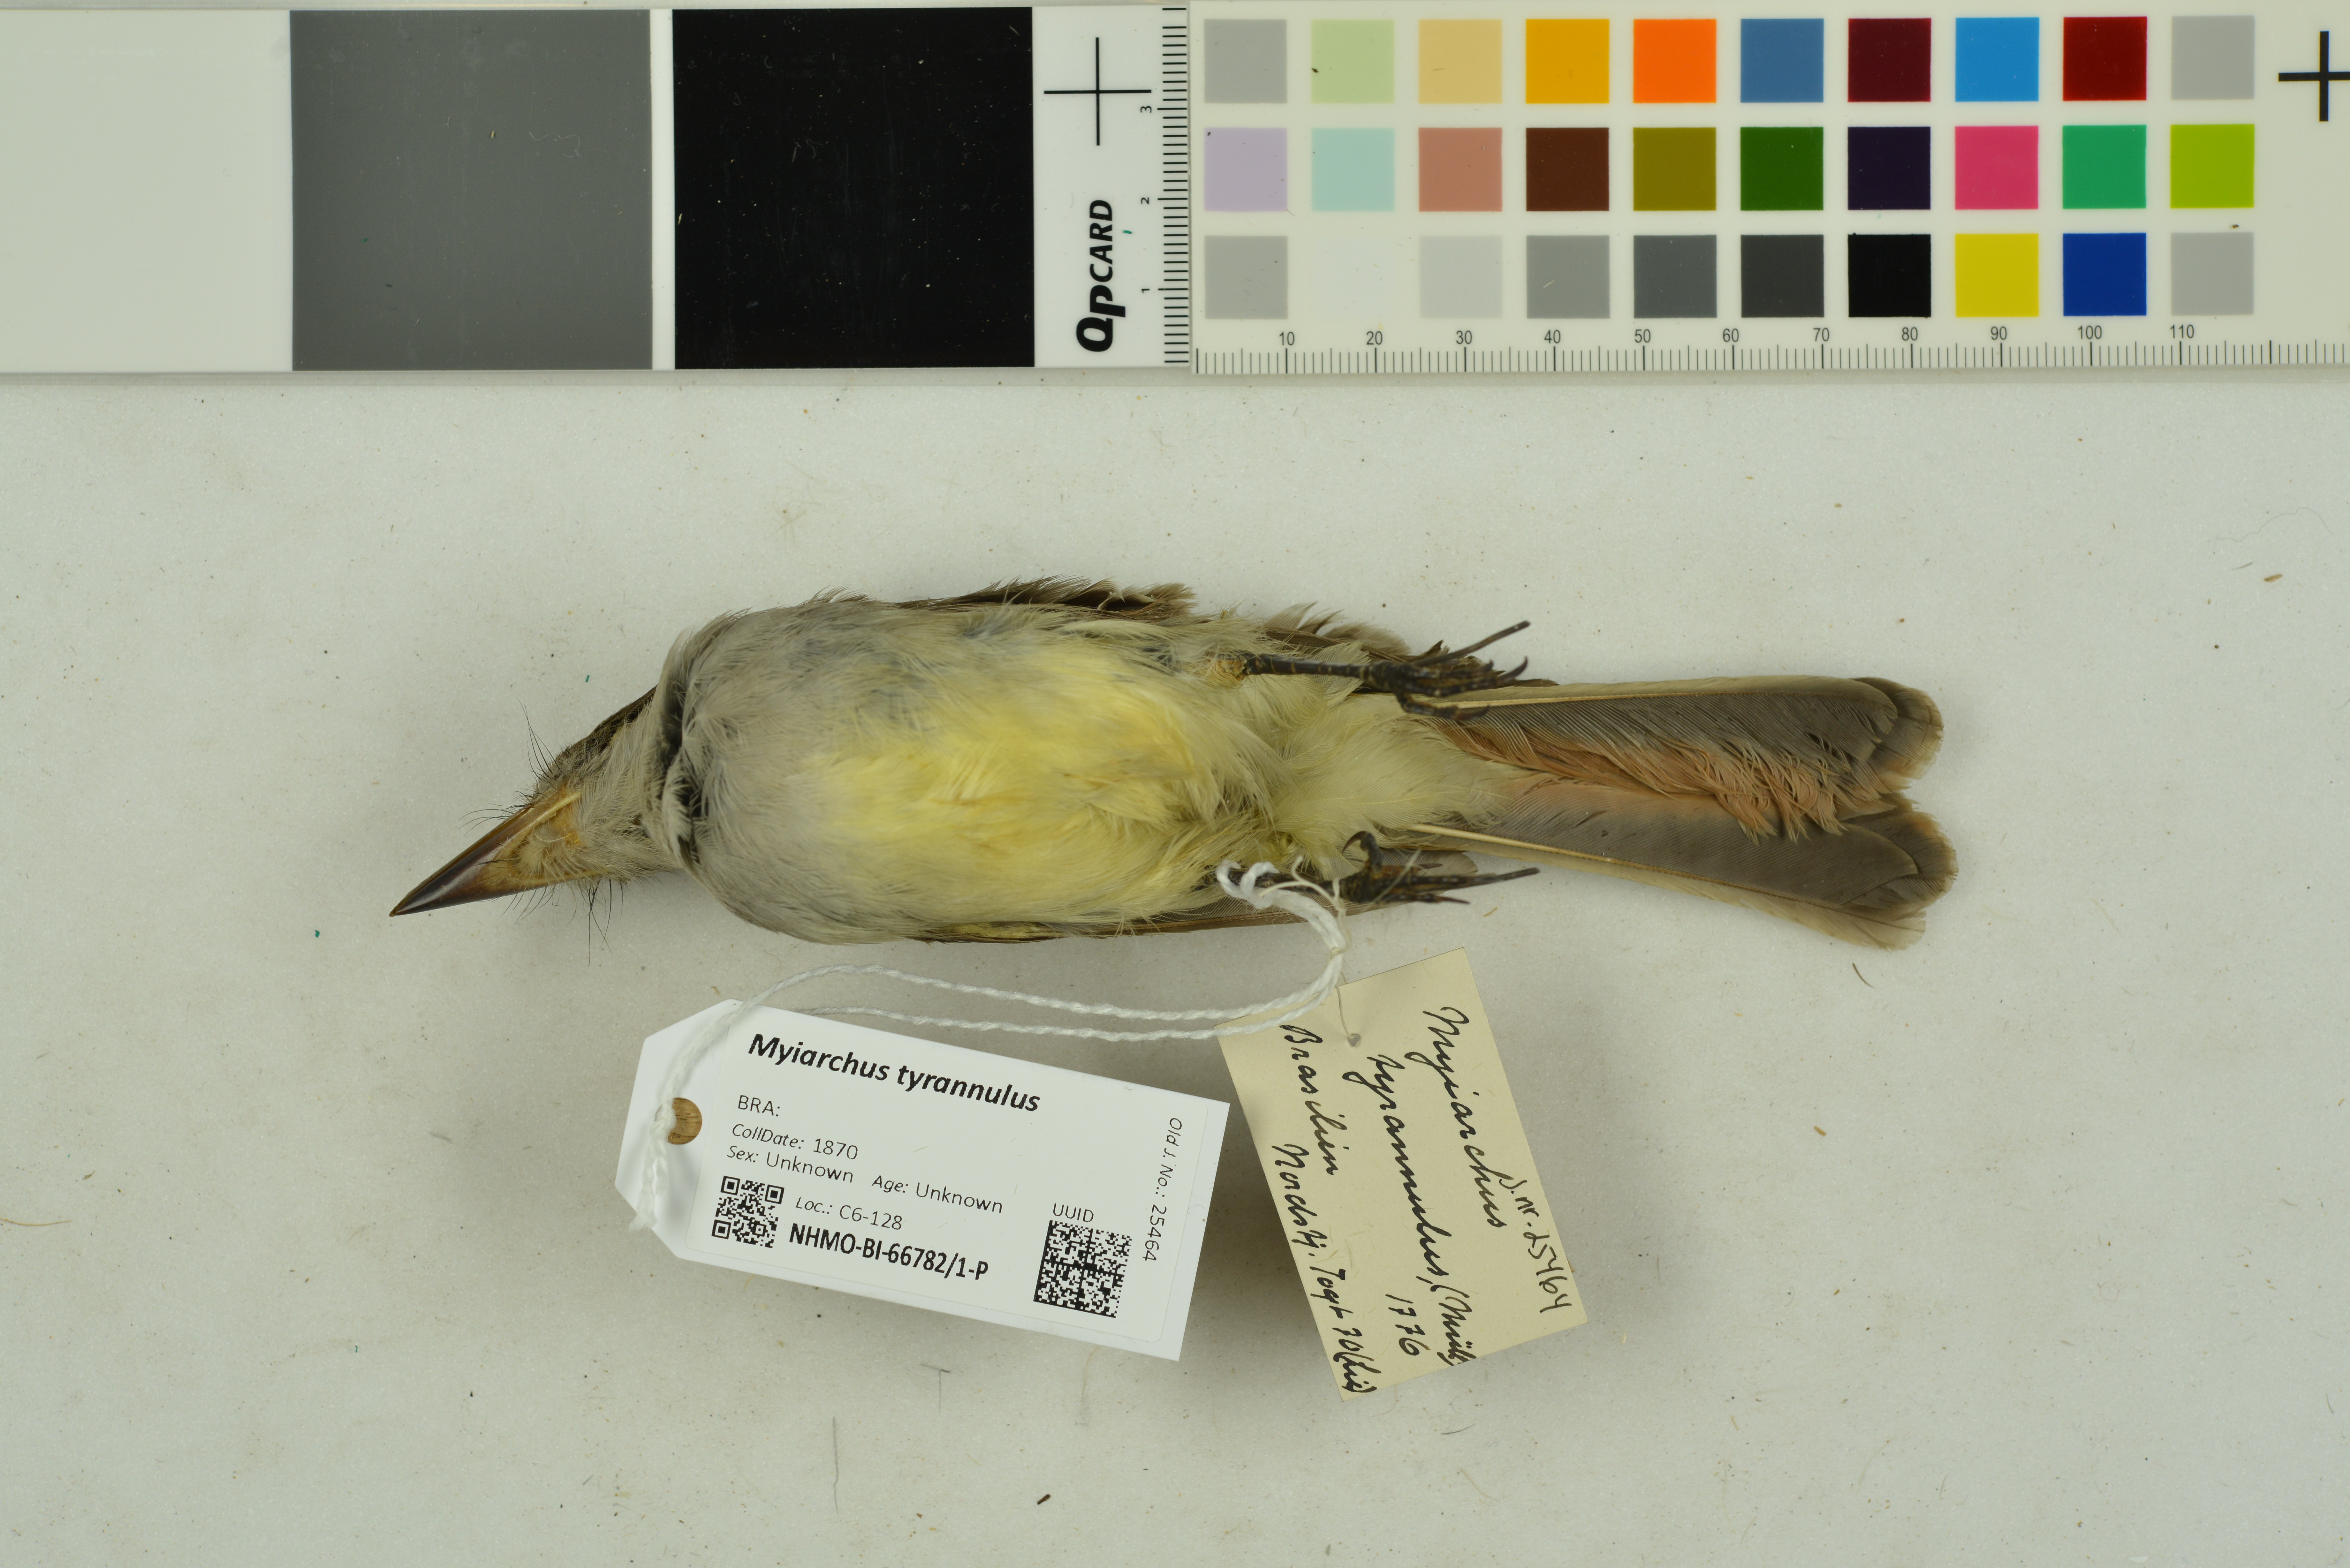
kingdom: Animalia
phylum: Chordata
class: Aves
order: Passeriformes
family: Tyrannidae
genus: Myiarchus
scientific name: Myiarchus tyrannulus
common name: Brown-crested flycatcher
